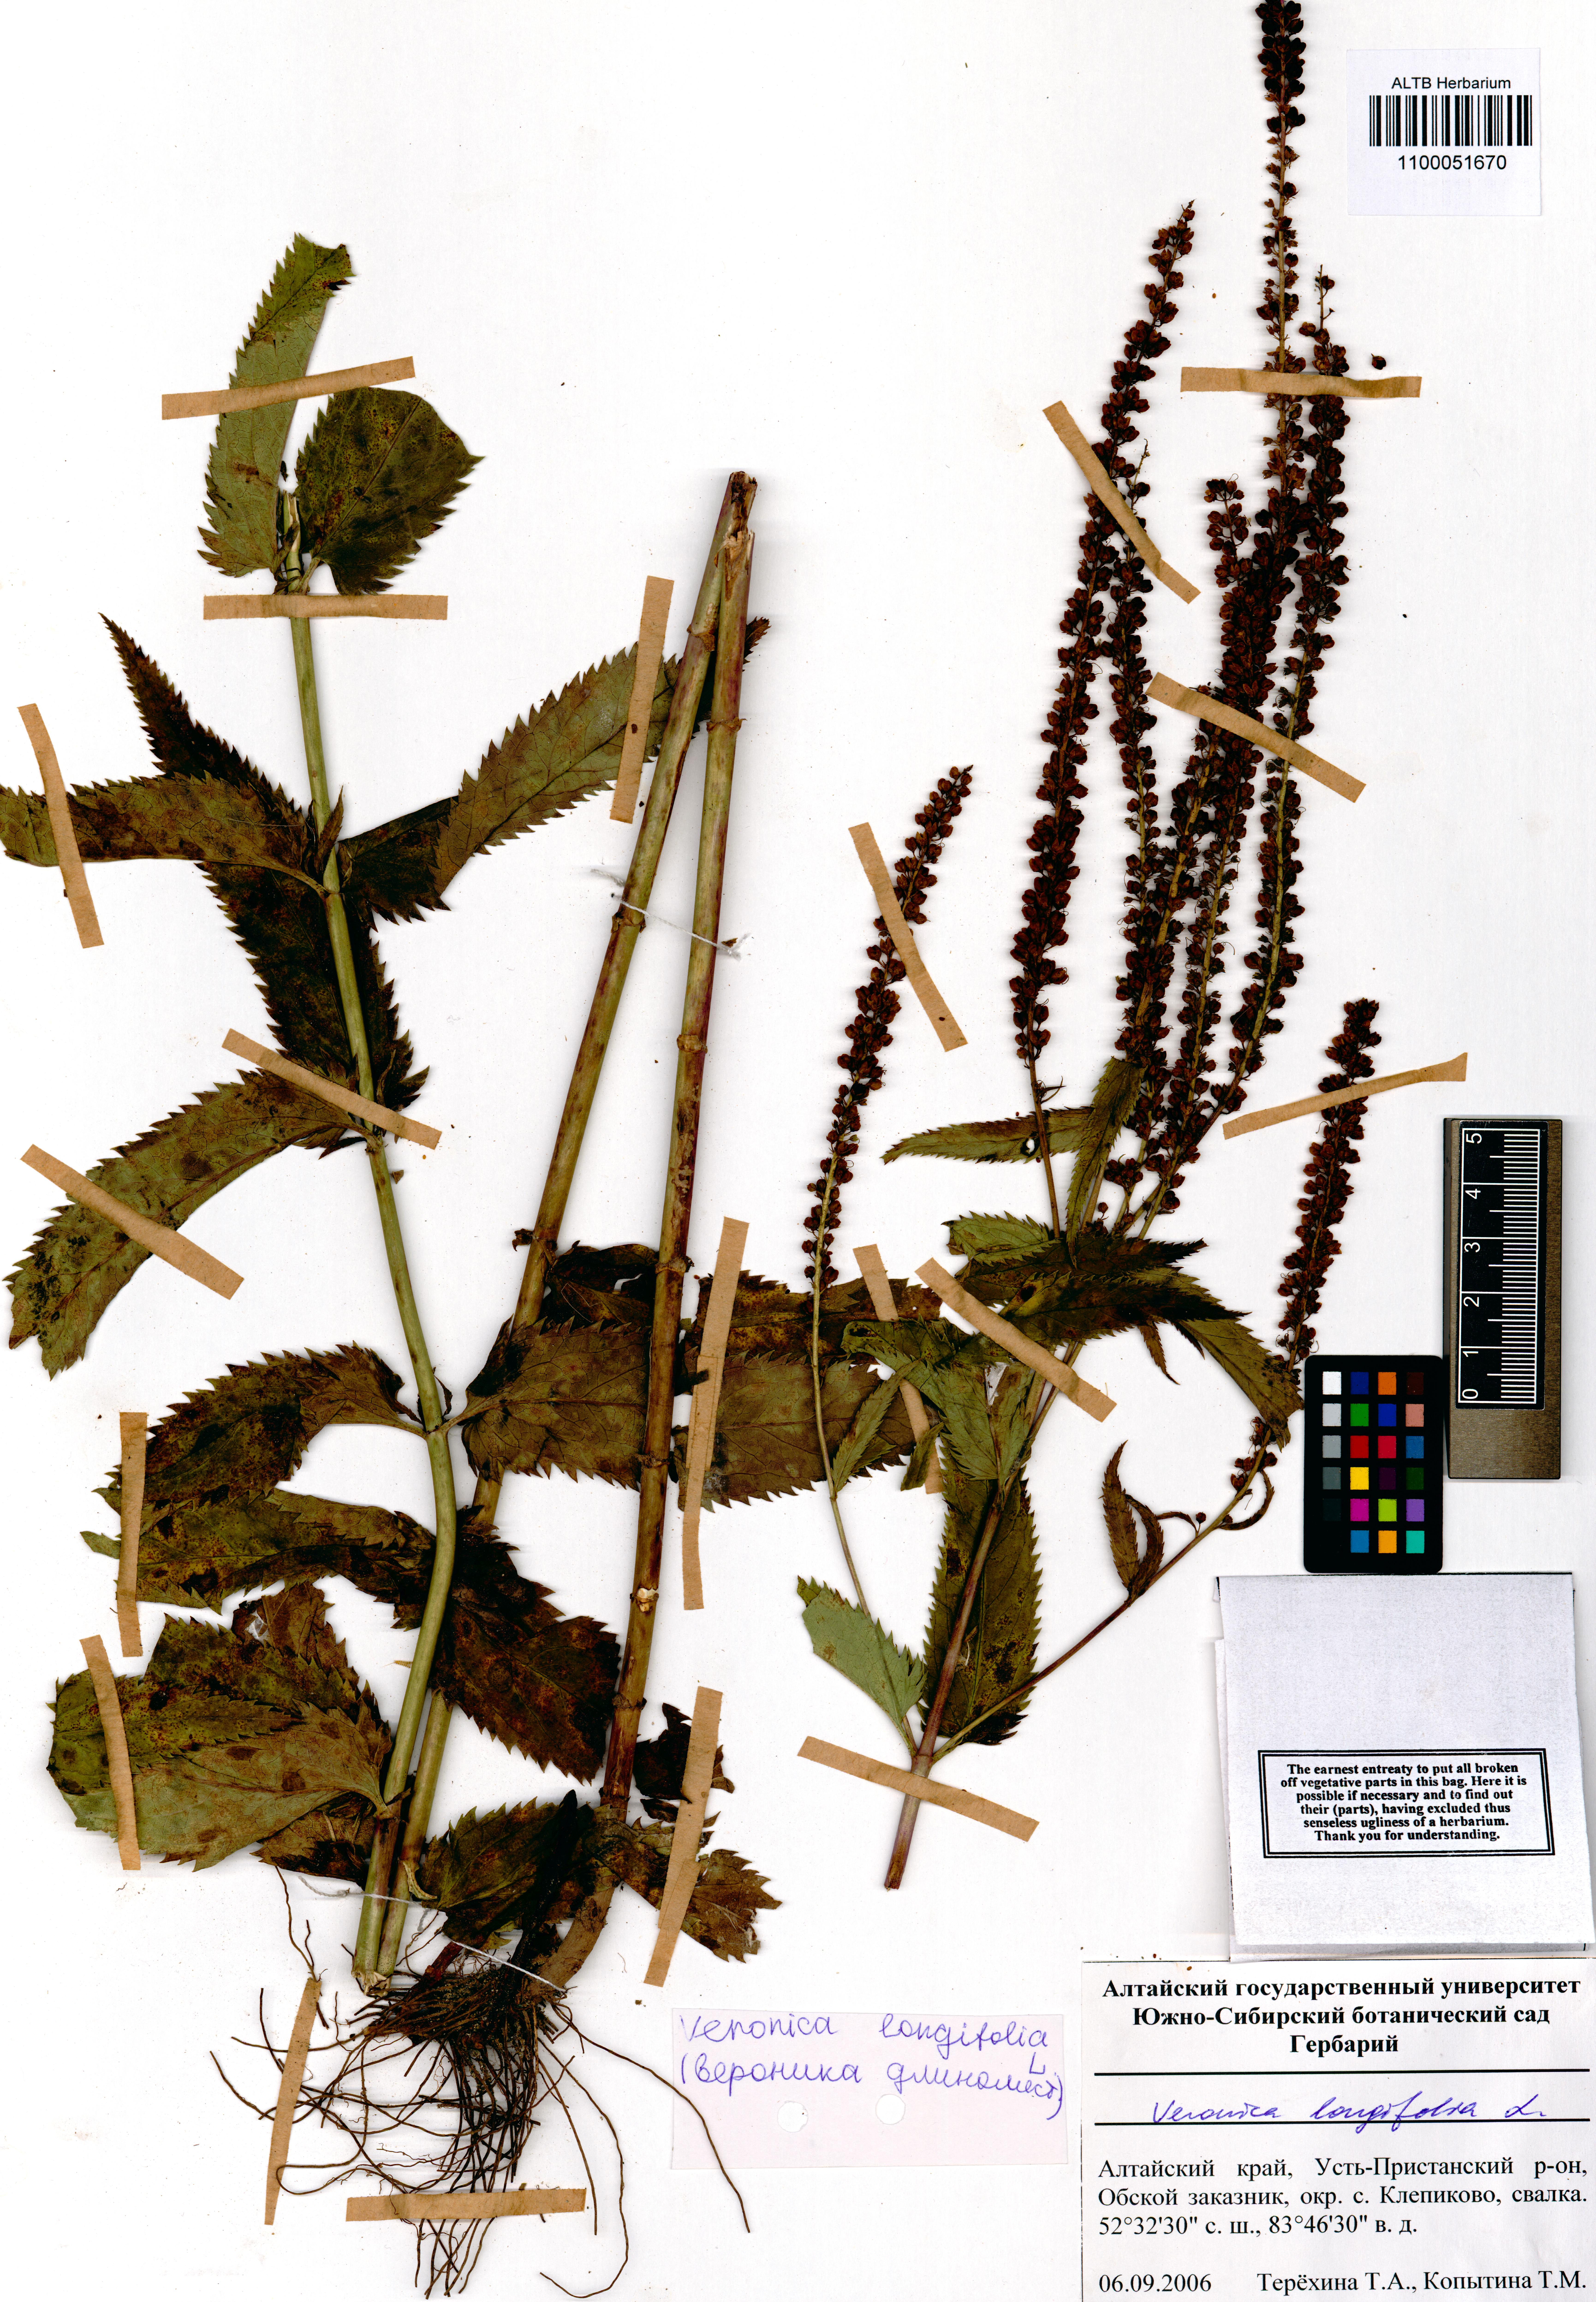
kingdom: Plantae
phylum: Tracheophyta
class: Magnoliopsida
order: Lamiales
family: Plantaginaceae
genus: Veronica
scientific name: Veronica longifolia
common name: Garden speedwell
